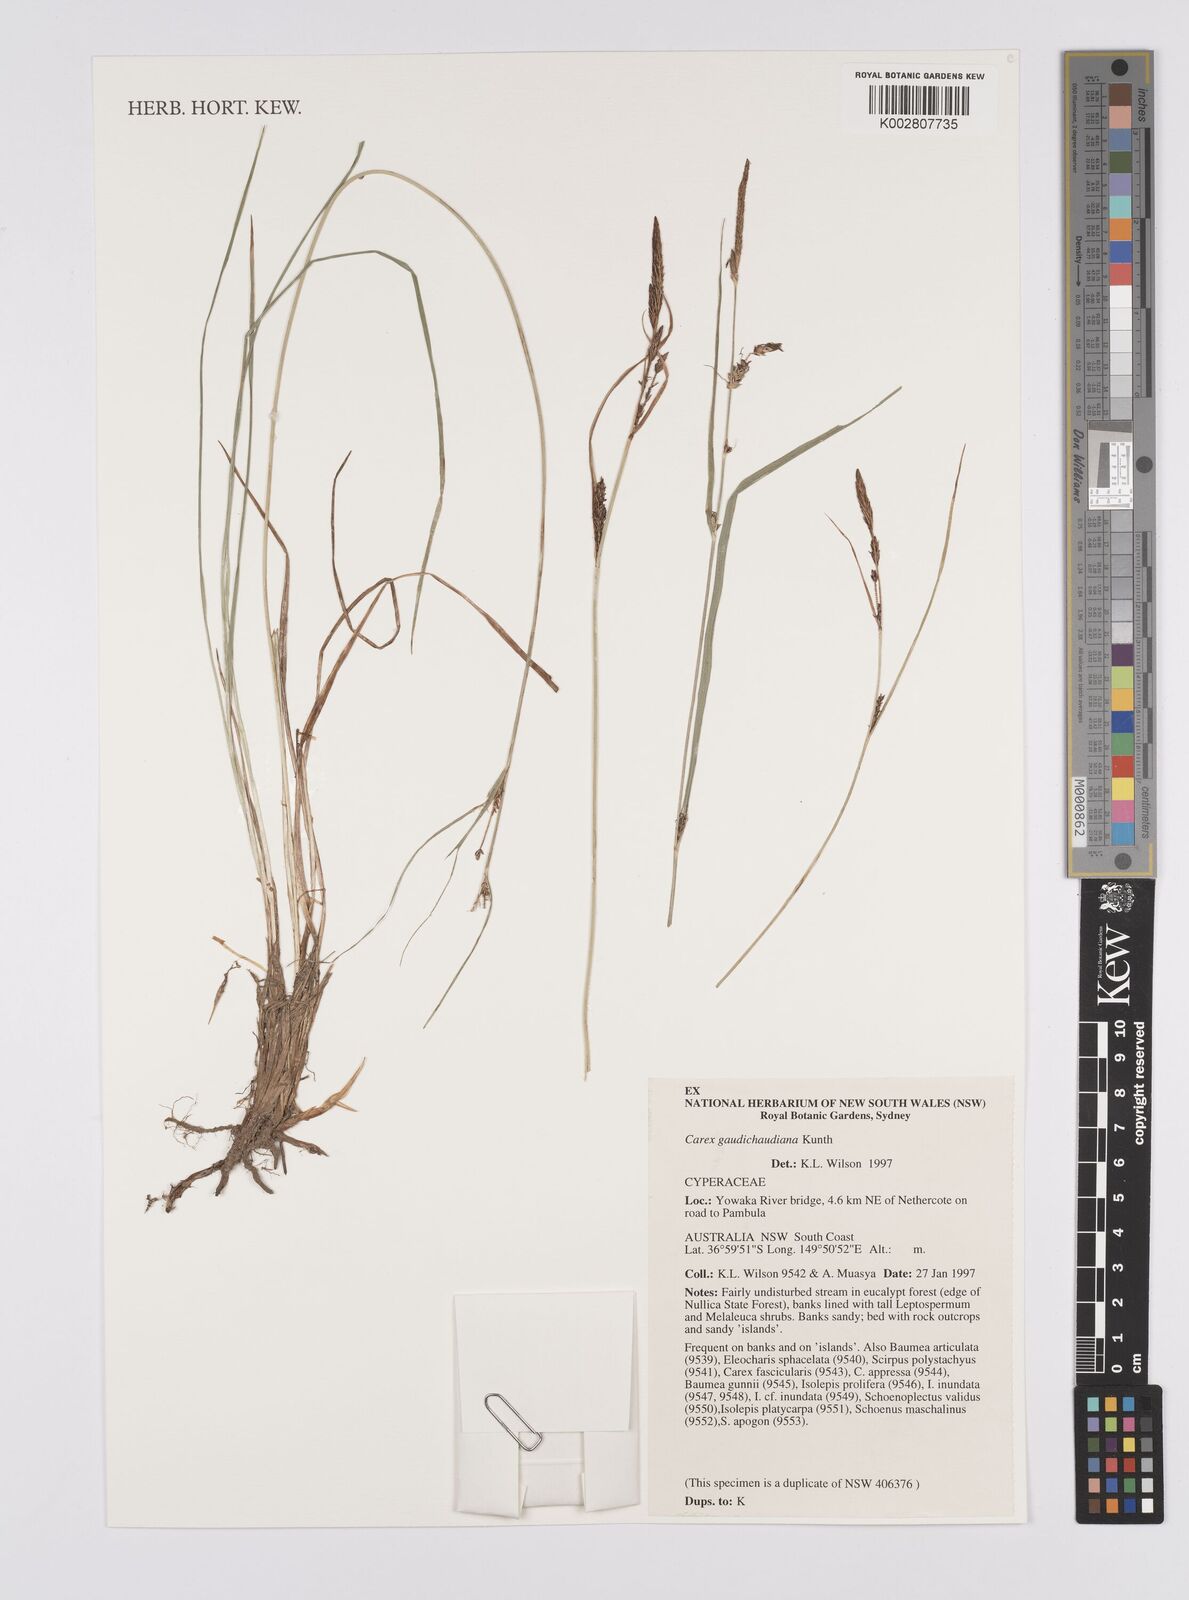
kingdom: Plantae
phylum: Tracheophyta
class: Liliopsida
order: Poales
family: Cyperaceae
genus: Carex
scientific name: Carex gaudichaudiana
